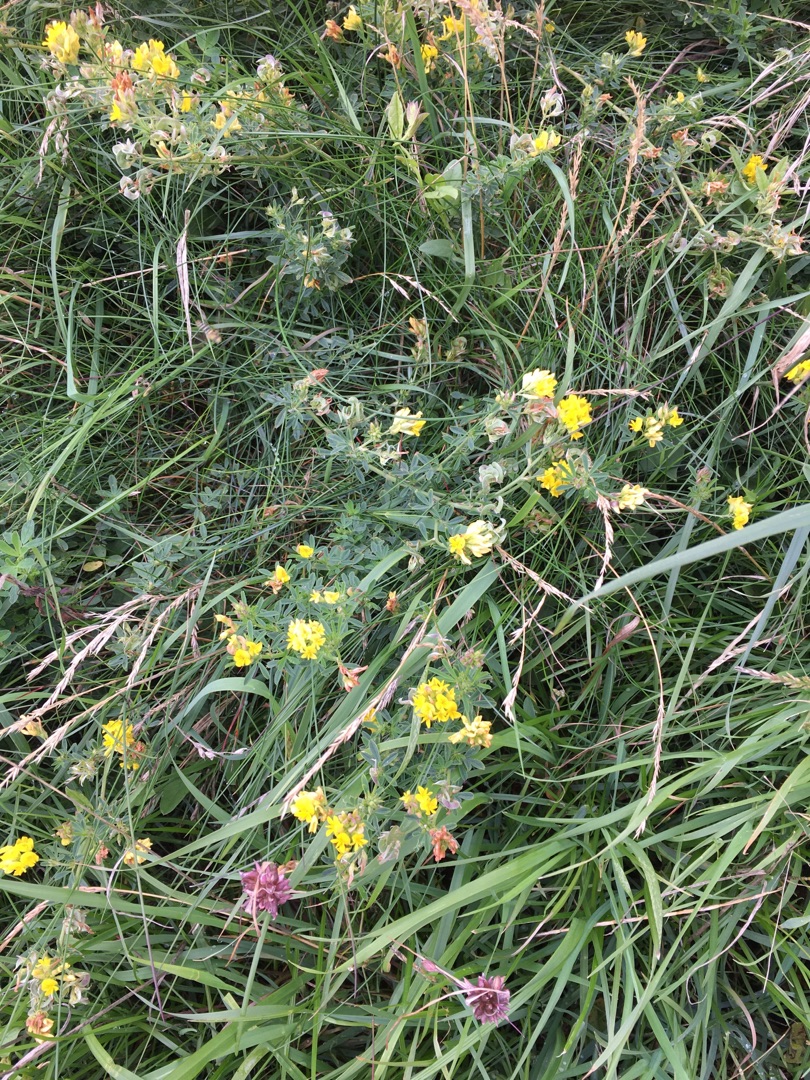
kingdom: Plantae
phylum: Tracheophyta
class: Magnoliopsida
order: Fabales
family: Fabaceae
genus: Medicago
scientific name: Medicago falcata
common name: Segl-sneglebælg
